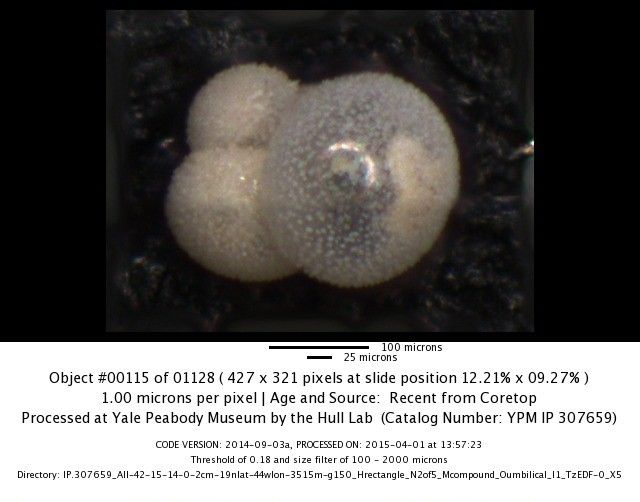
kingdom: Chromista
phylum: Foraminifera
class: Globothalamea
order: Rotaliida
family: Globigerinitidae
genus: Globigerinita
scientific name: Globigerinita glutinata
